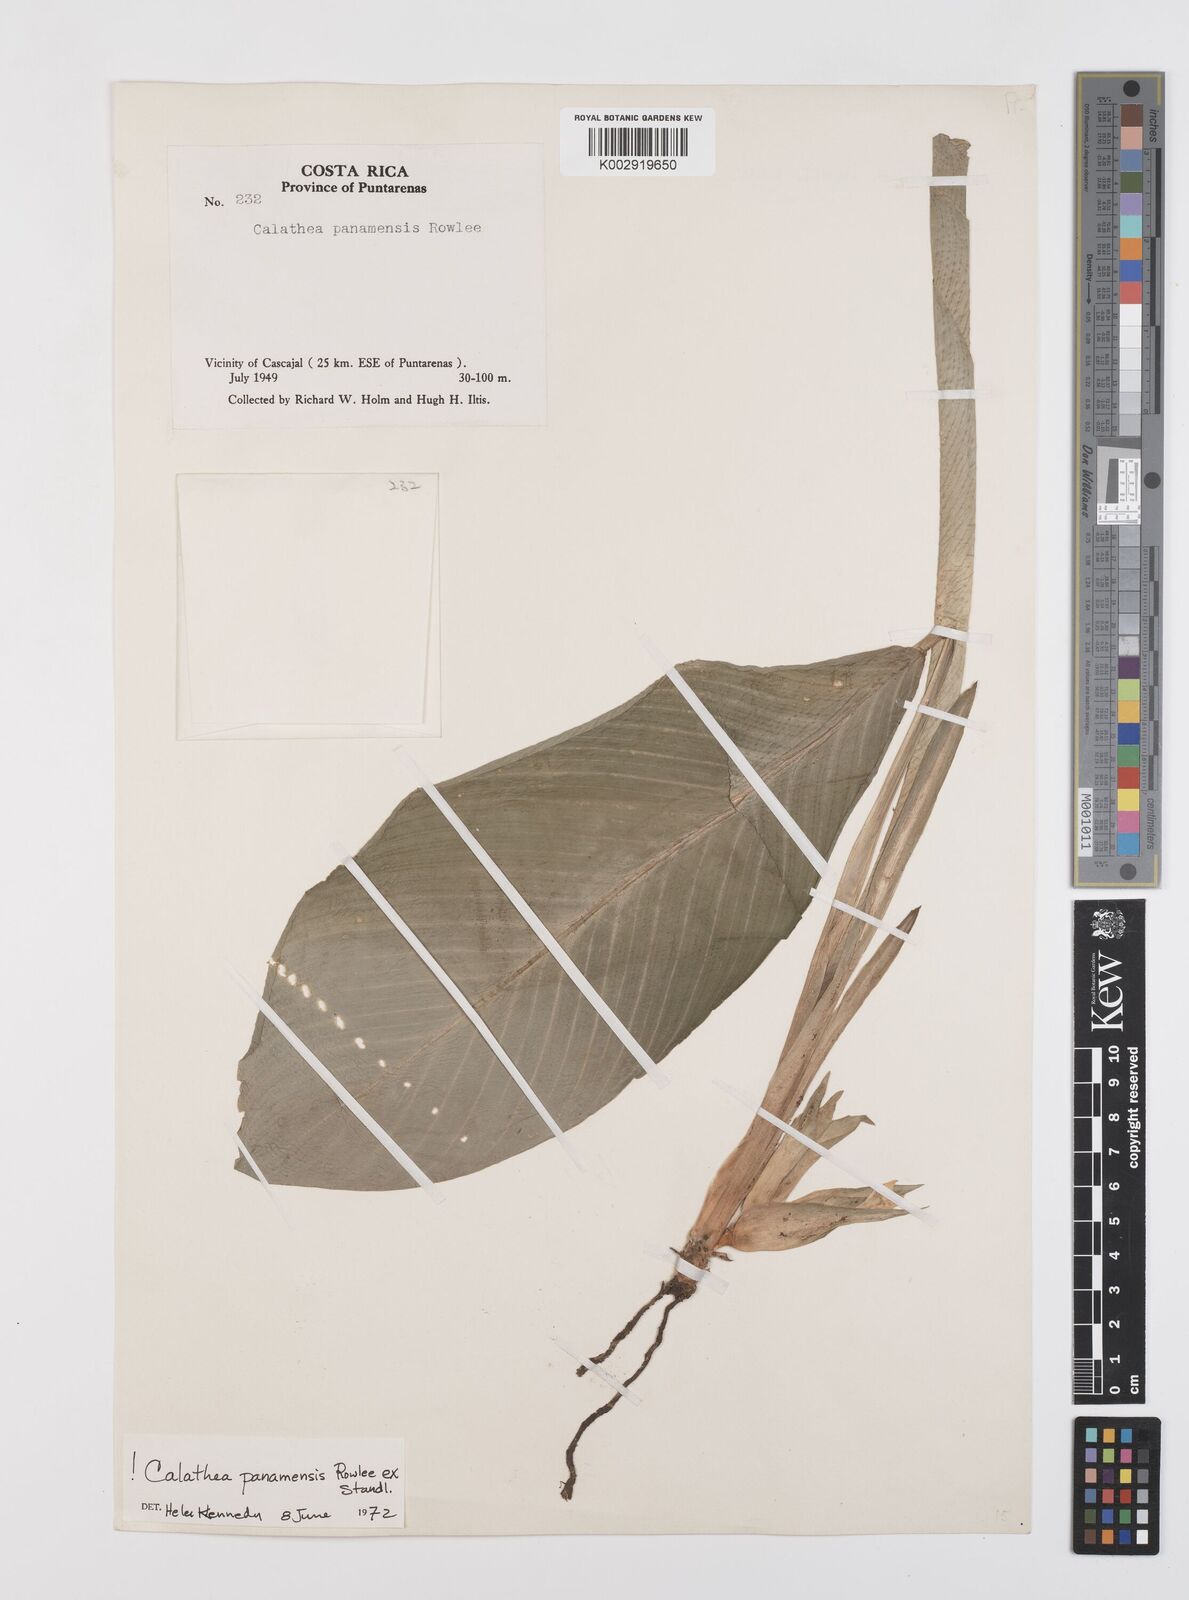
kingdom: Plantae
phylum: Tracheophyta
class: Liliopsida
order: Zingiberales
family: Marantaceae
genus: Goeppertia
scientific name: Goeppertia panamensis
